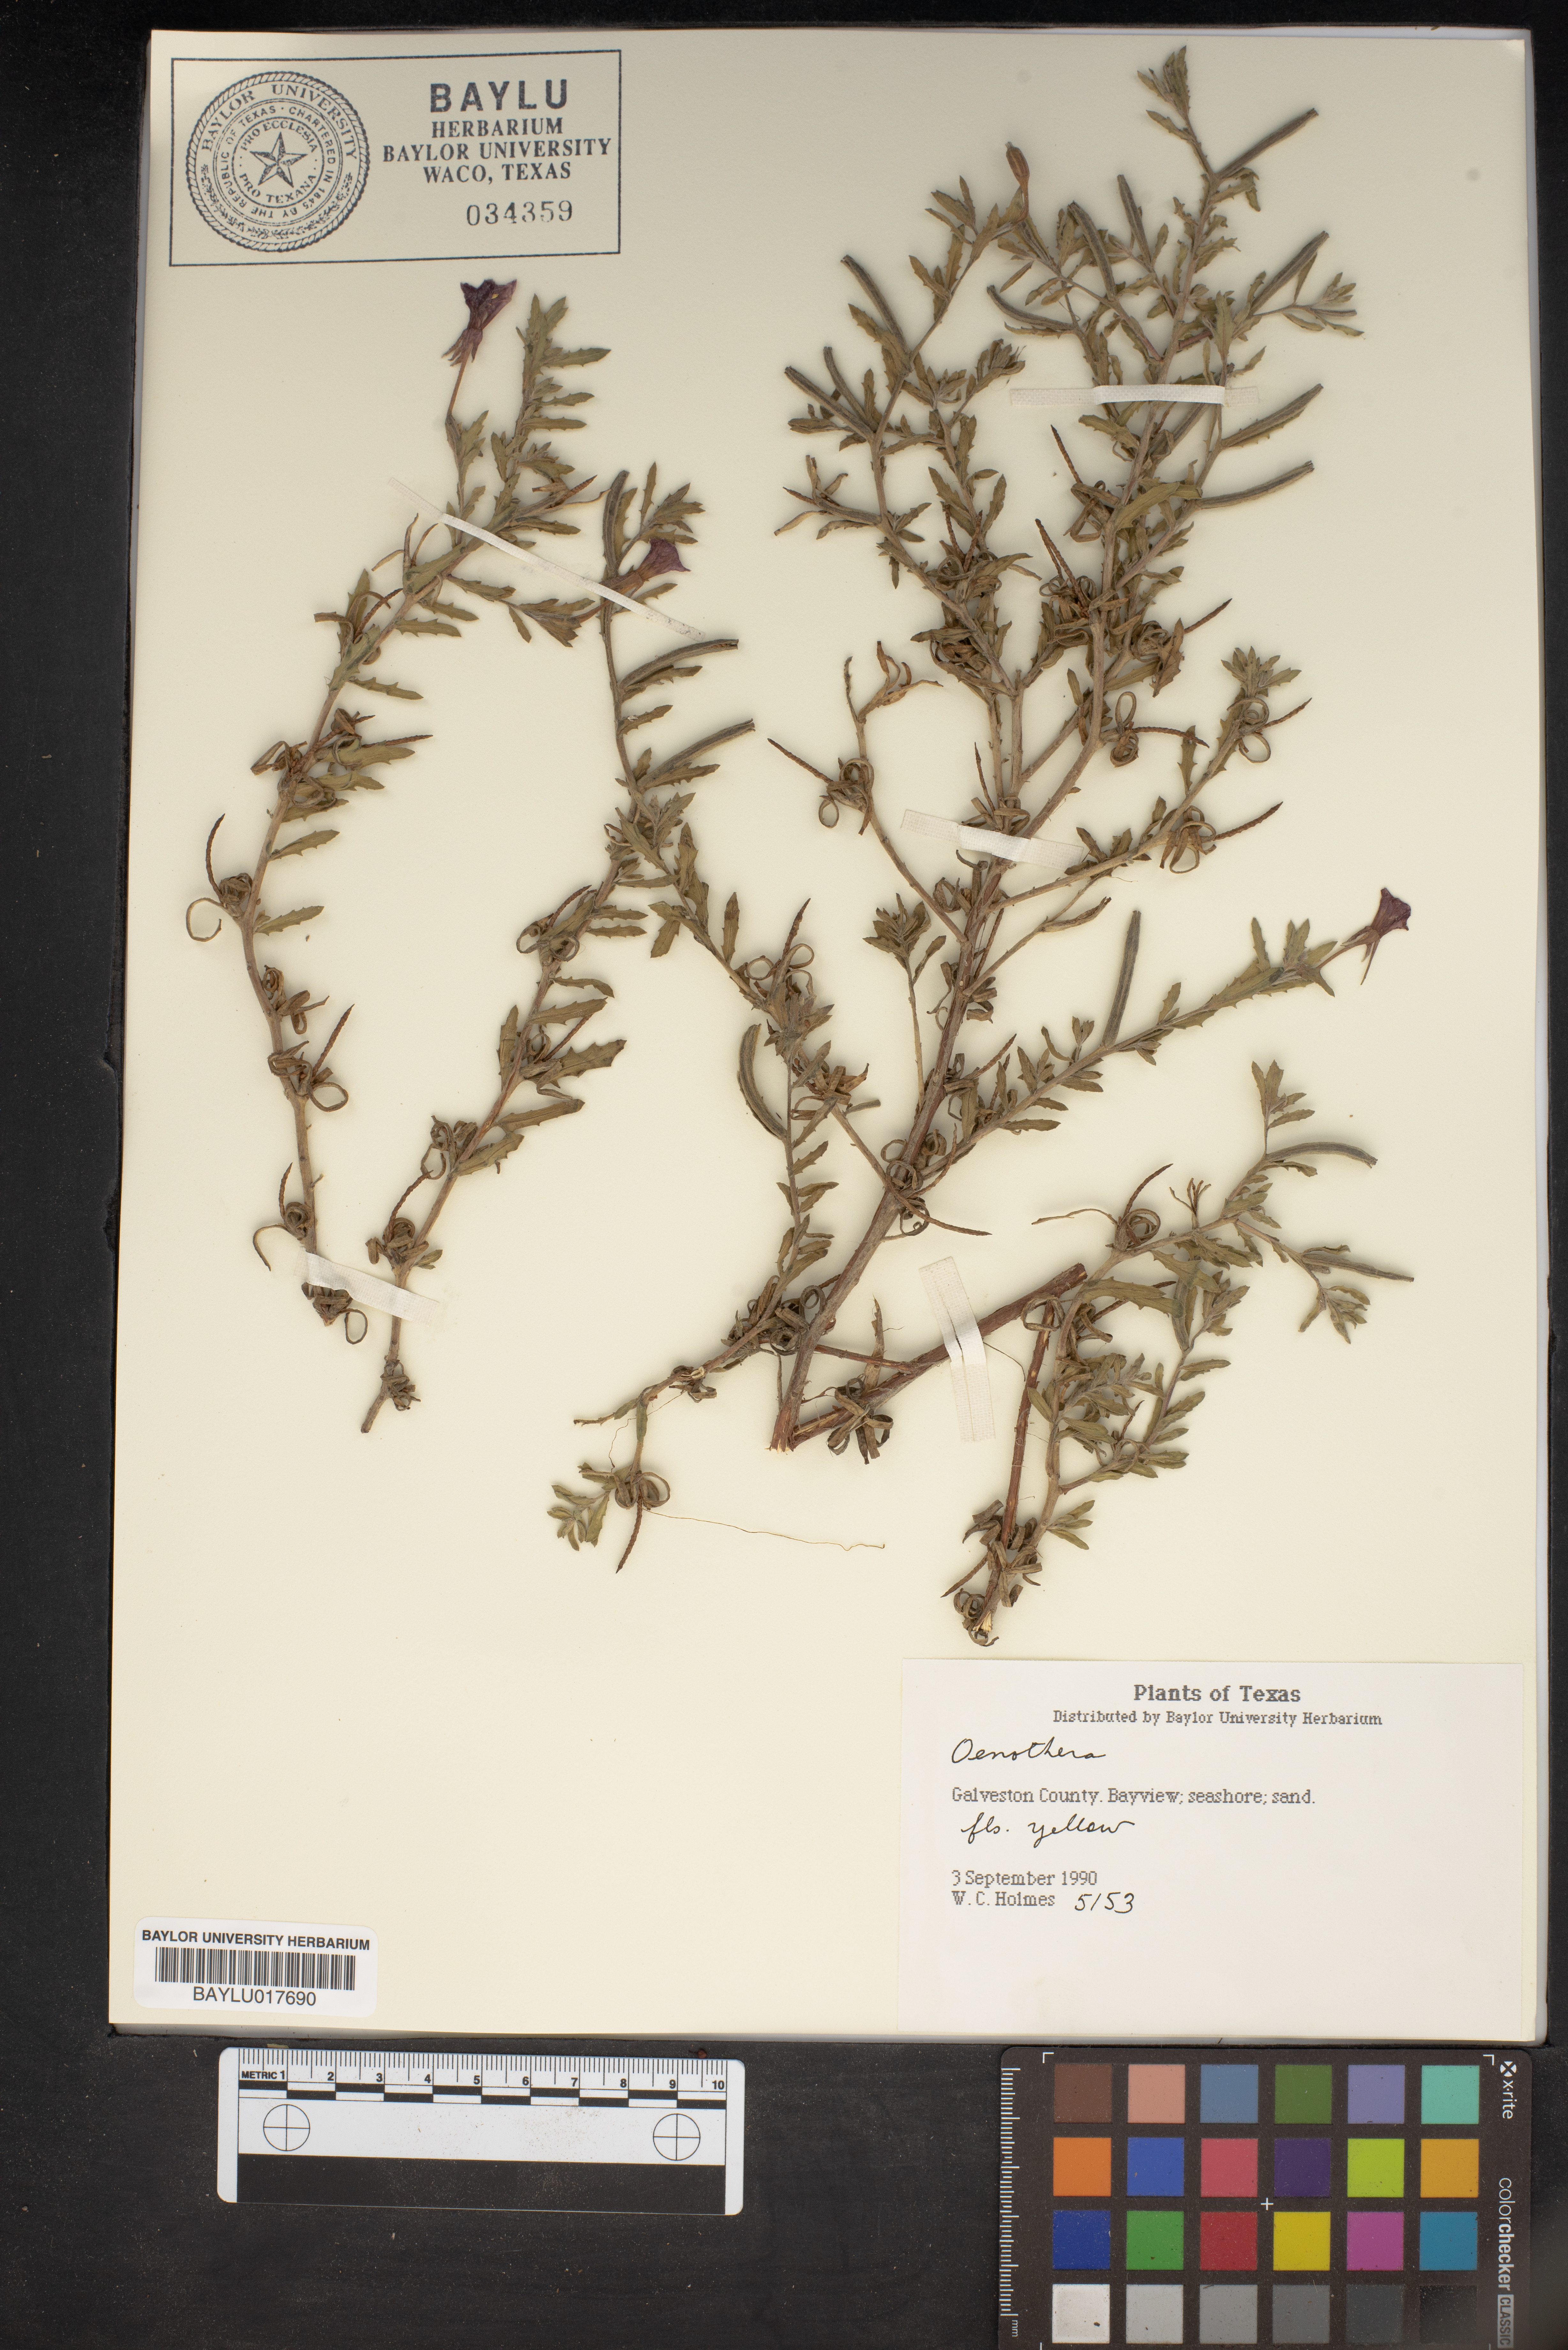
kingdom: Plantae
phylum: Tracheophyta
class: Magnoliopsida
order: Myrtales
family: Onagraceae
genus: Oenothera
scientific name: Oenothera
